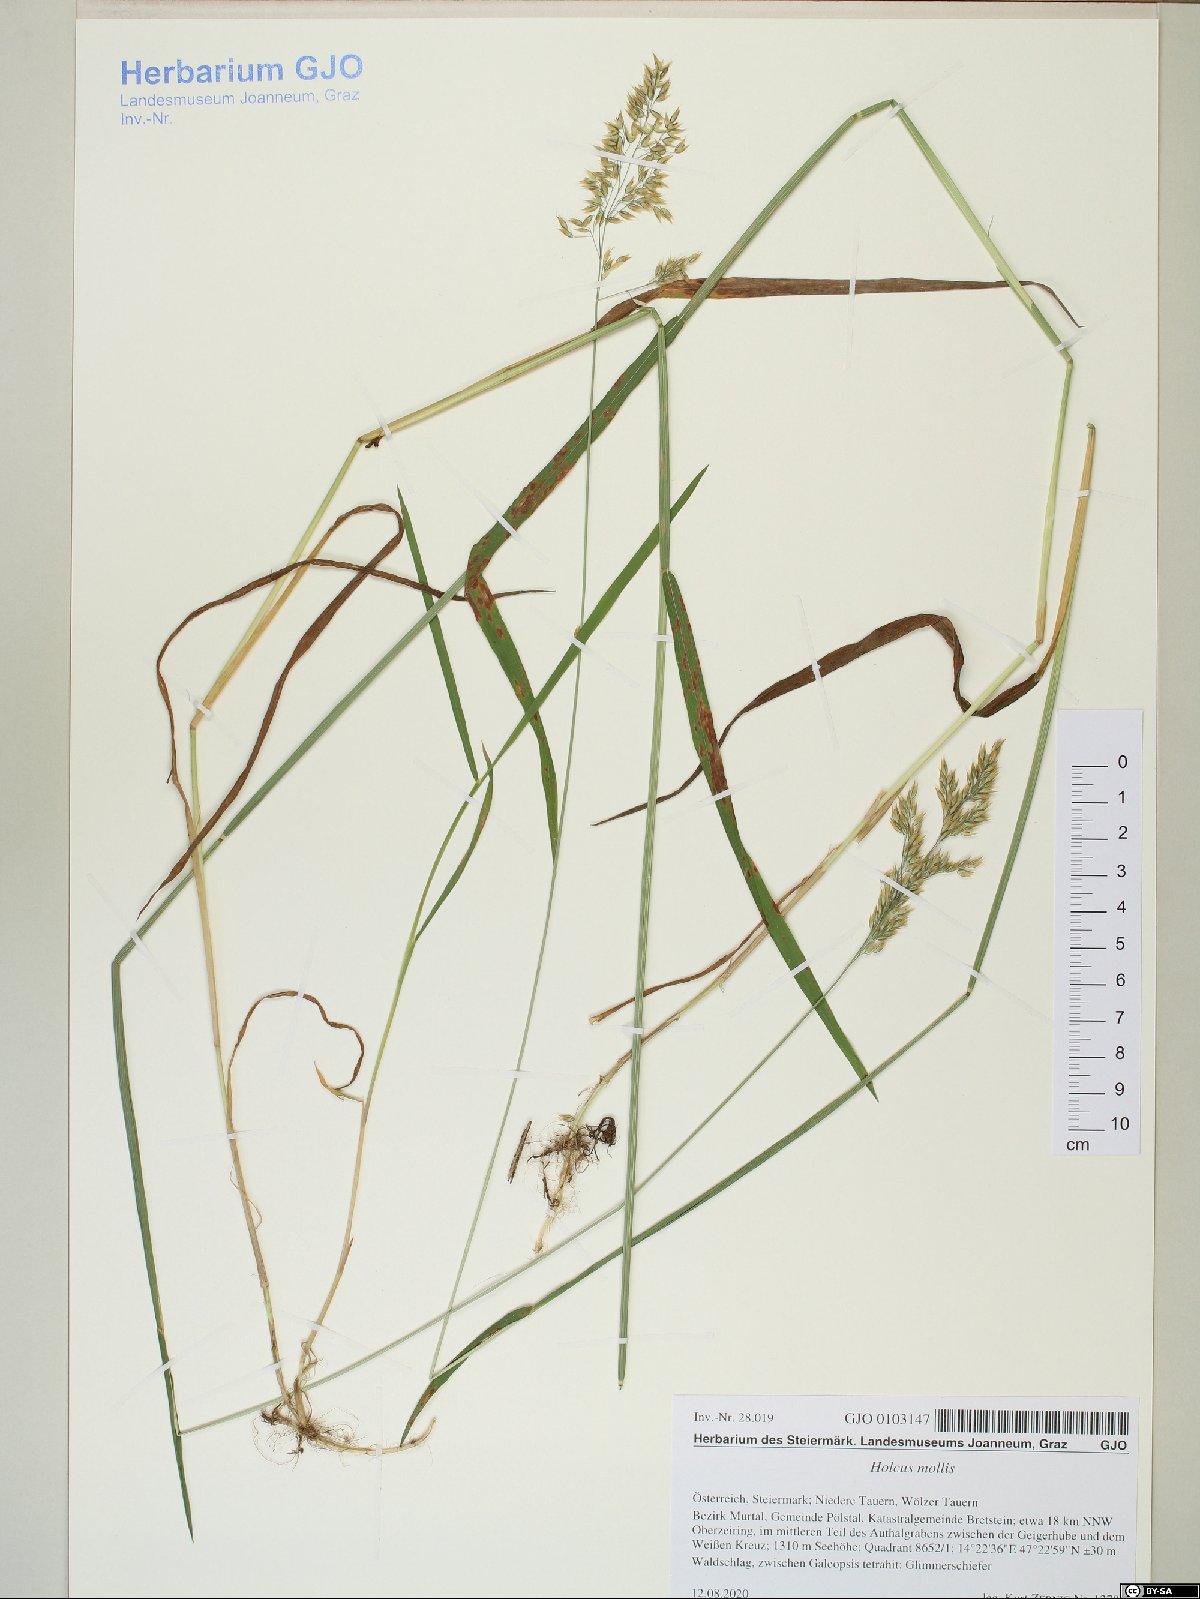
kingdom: Plantae
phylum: Tracheophyta
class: Liliopsida
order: Poales
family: Poaceae
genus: Holcus
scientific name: Holcus mollis
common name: Creeping velvetgrass
